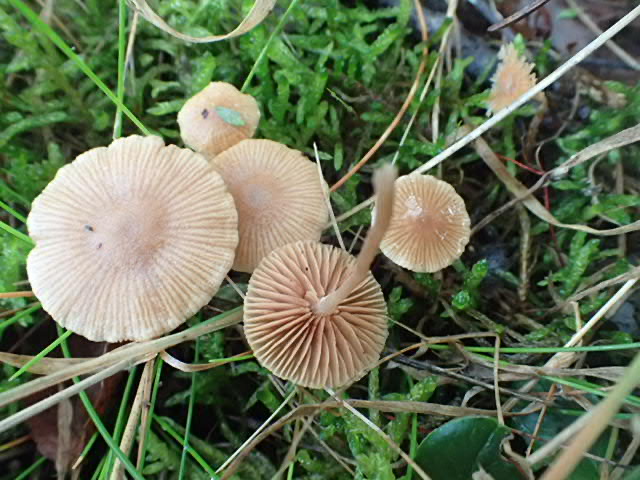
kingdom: Fungi
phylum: Basidiomycota
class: Agaricomycetes
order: Agaricales
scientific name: Agaricales
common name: champignonordenen
